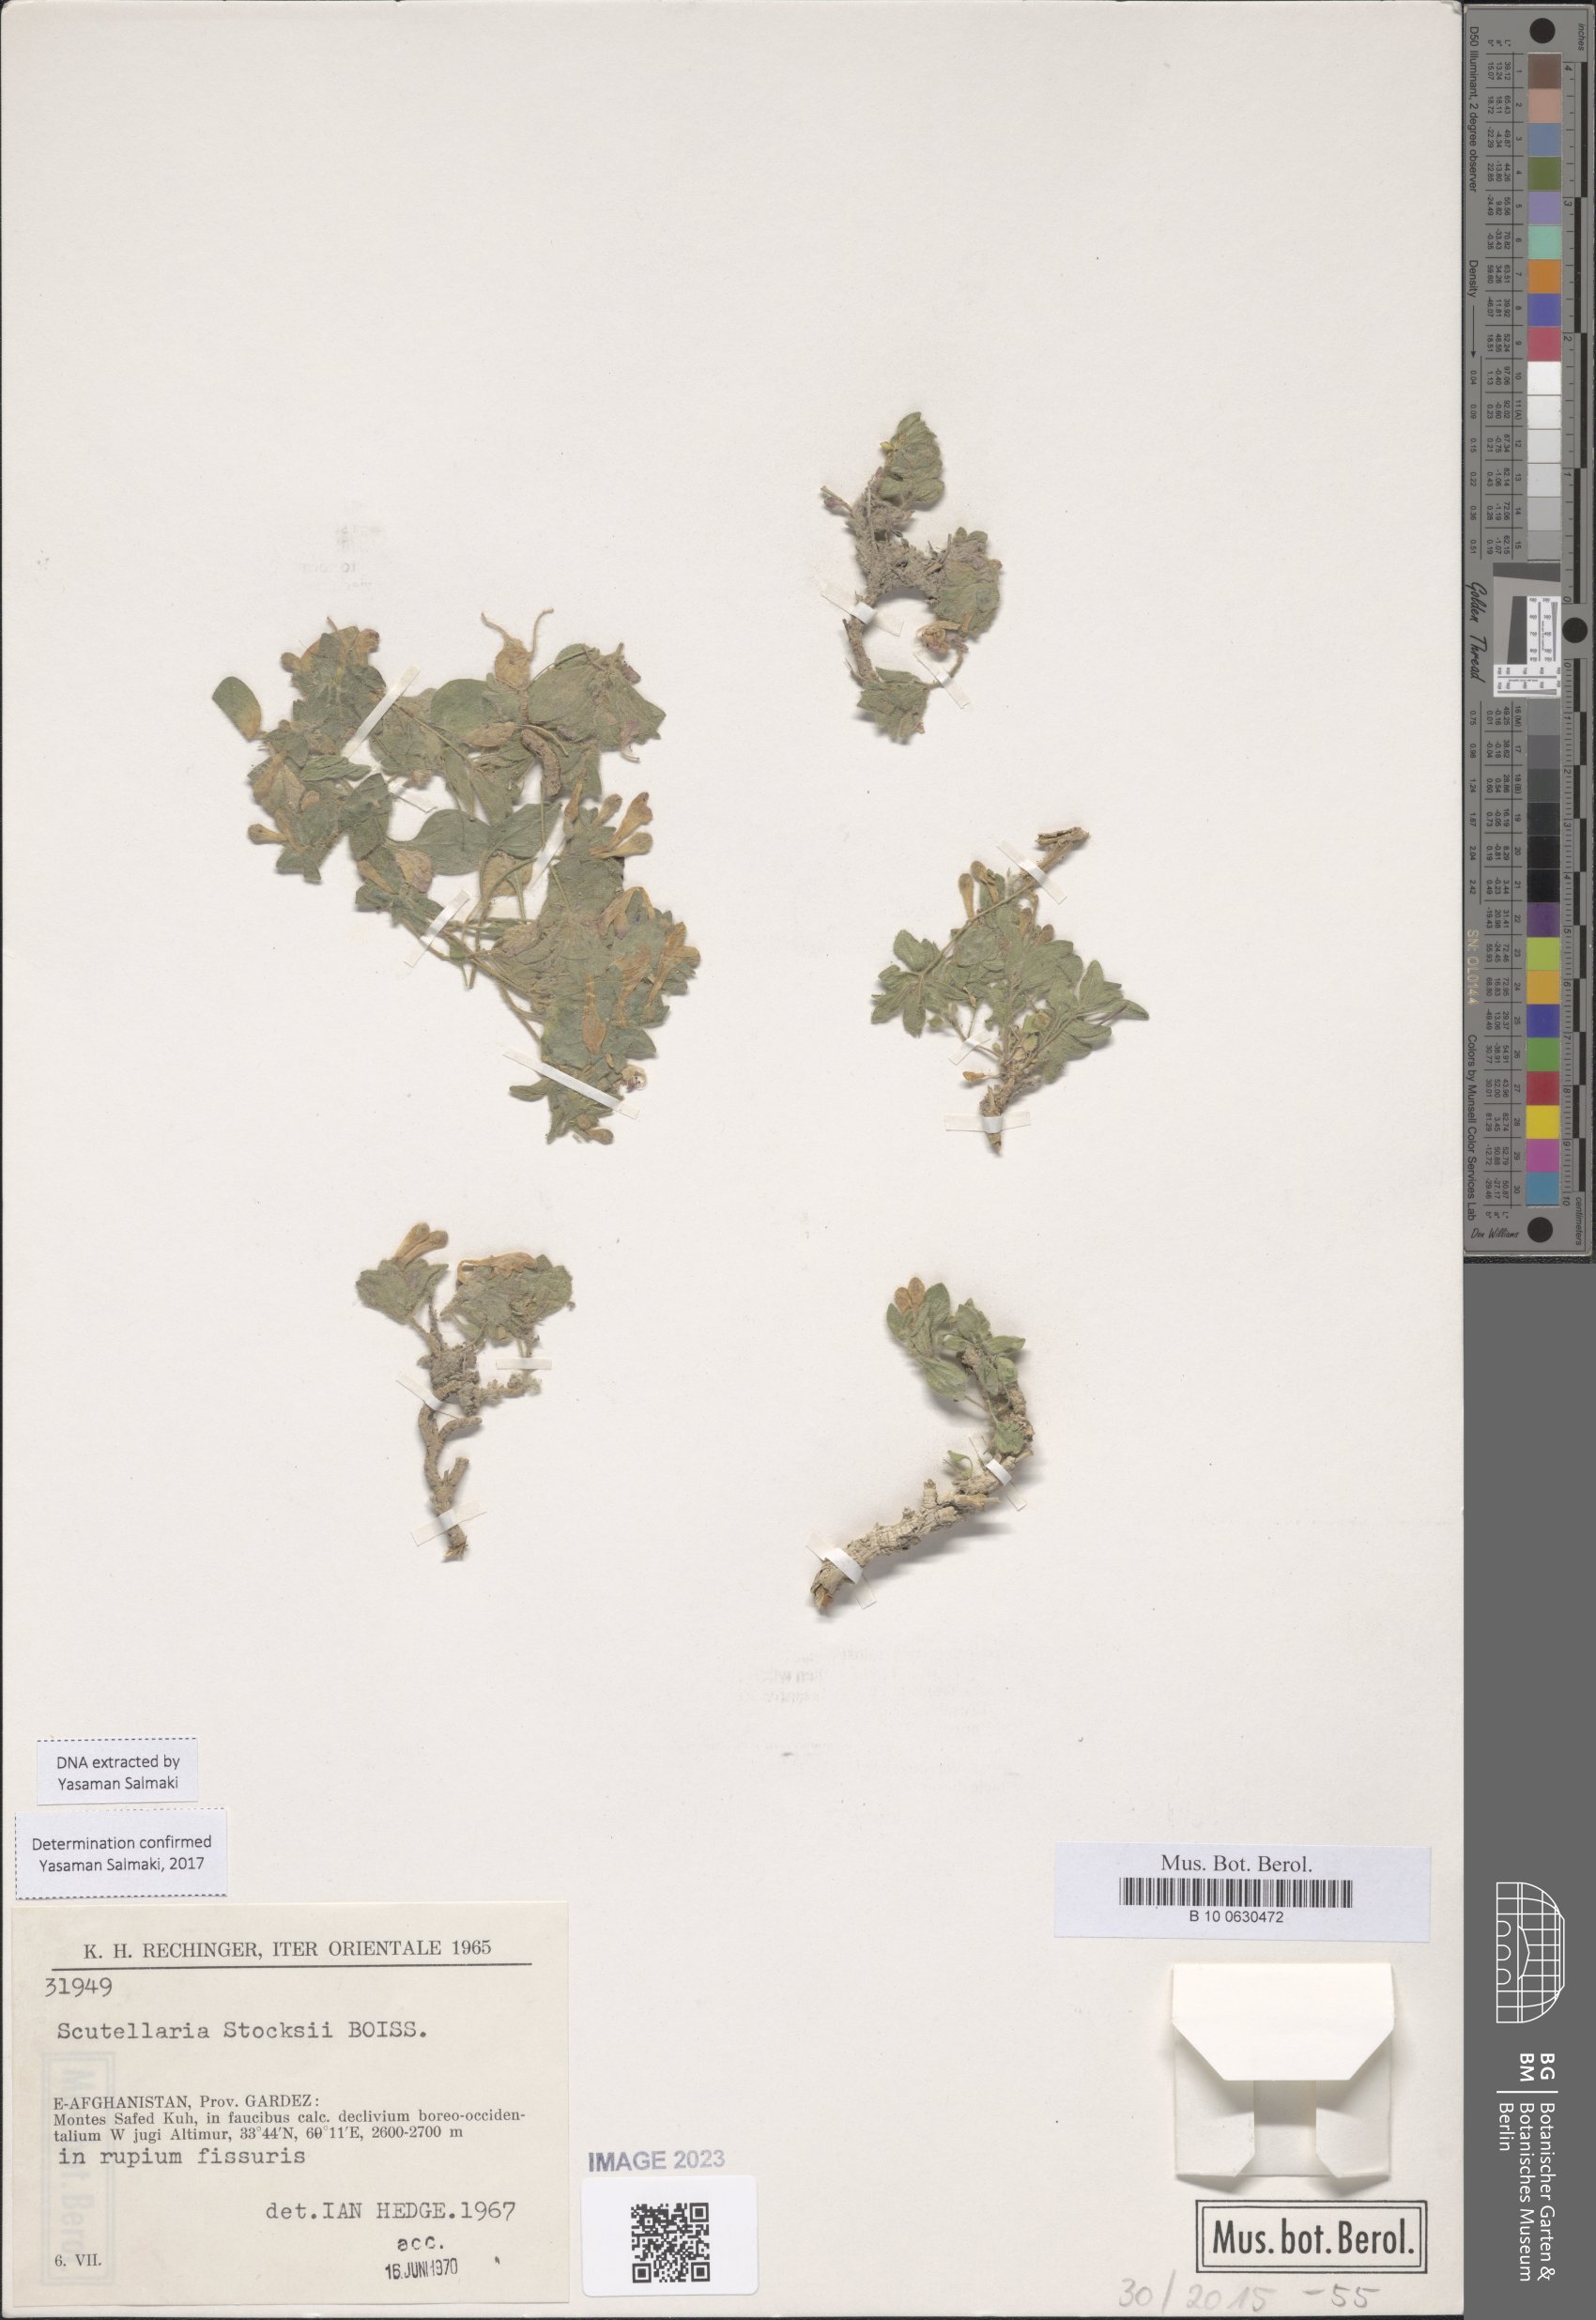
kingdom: Plantae
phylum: Tracheophyta
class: Magnoliopsida
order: Lamiales
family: Lamiaceae
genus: Scutellaria
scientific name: Scutellaria stocksii
